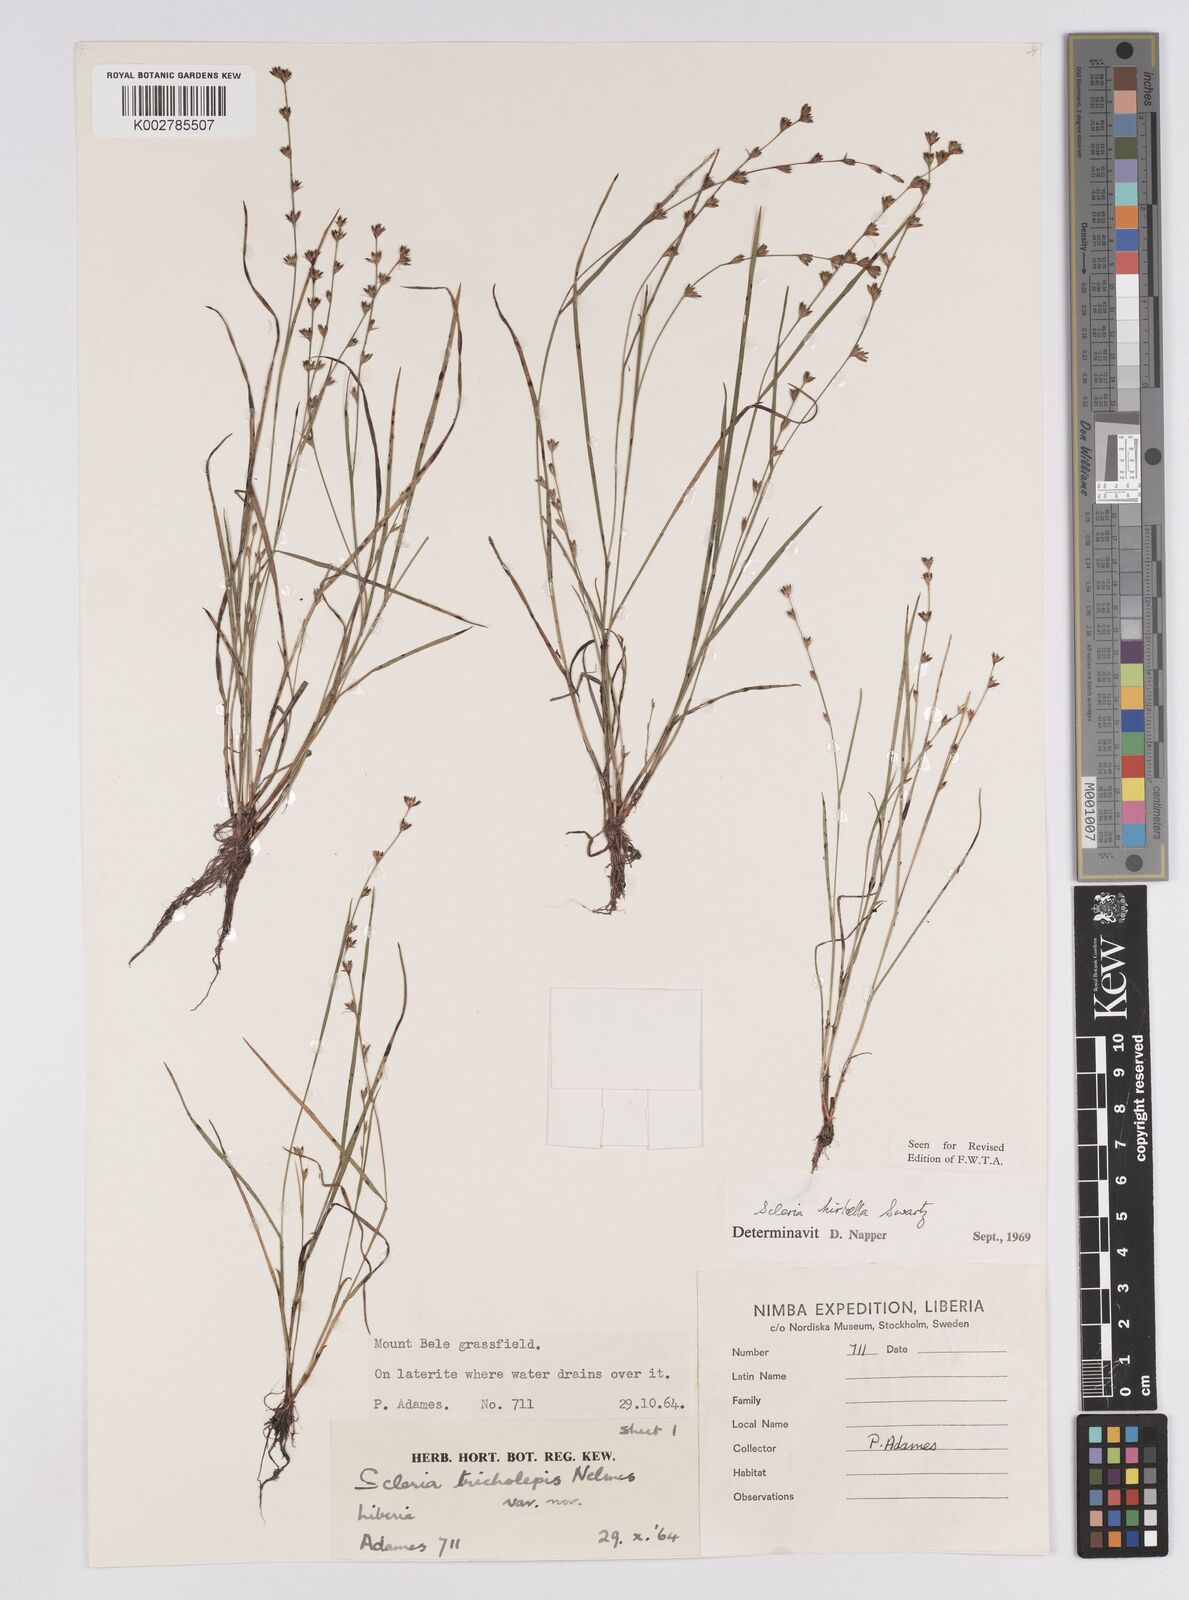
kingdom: Plantae
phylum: Tracheophyta
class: Liliopsida
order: Poales
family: Cyperaceae
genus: Scleria
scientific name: Scleria tricholepis
